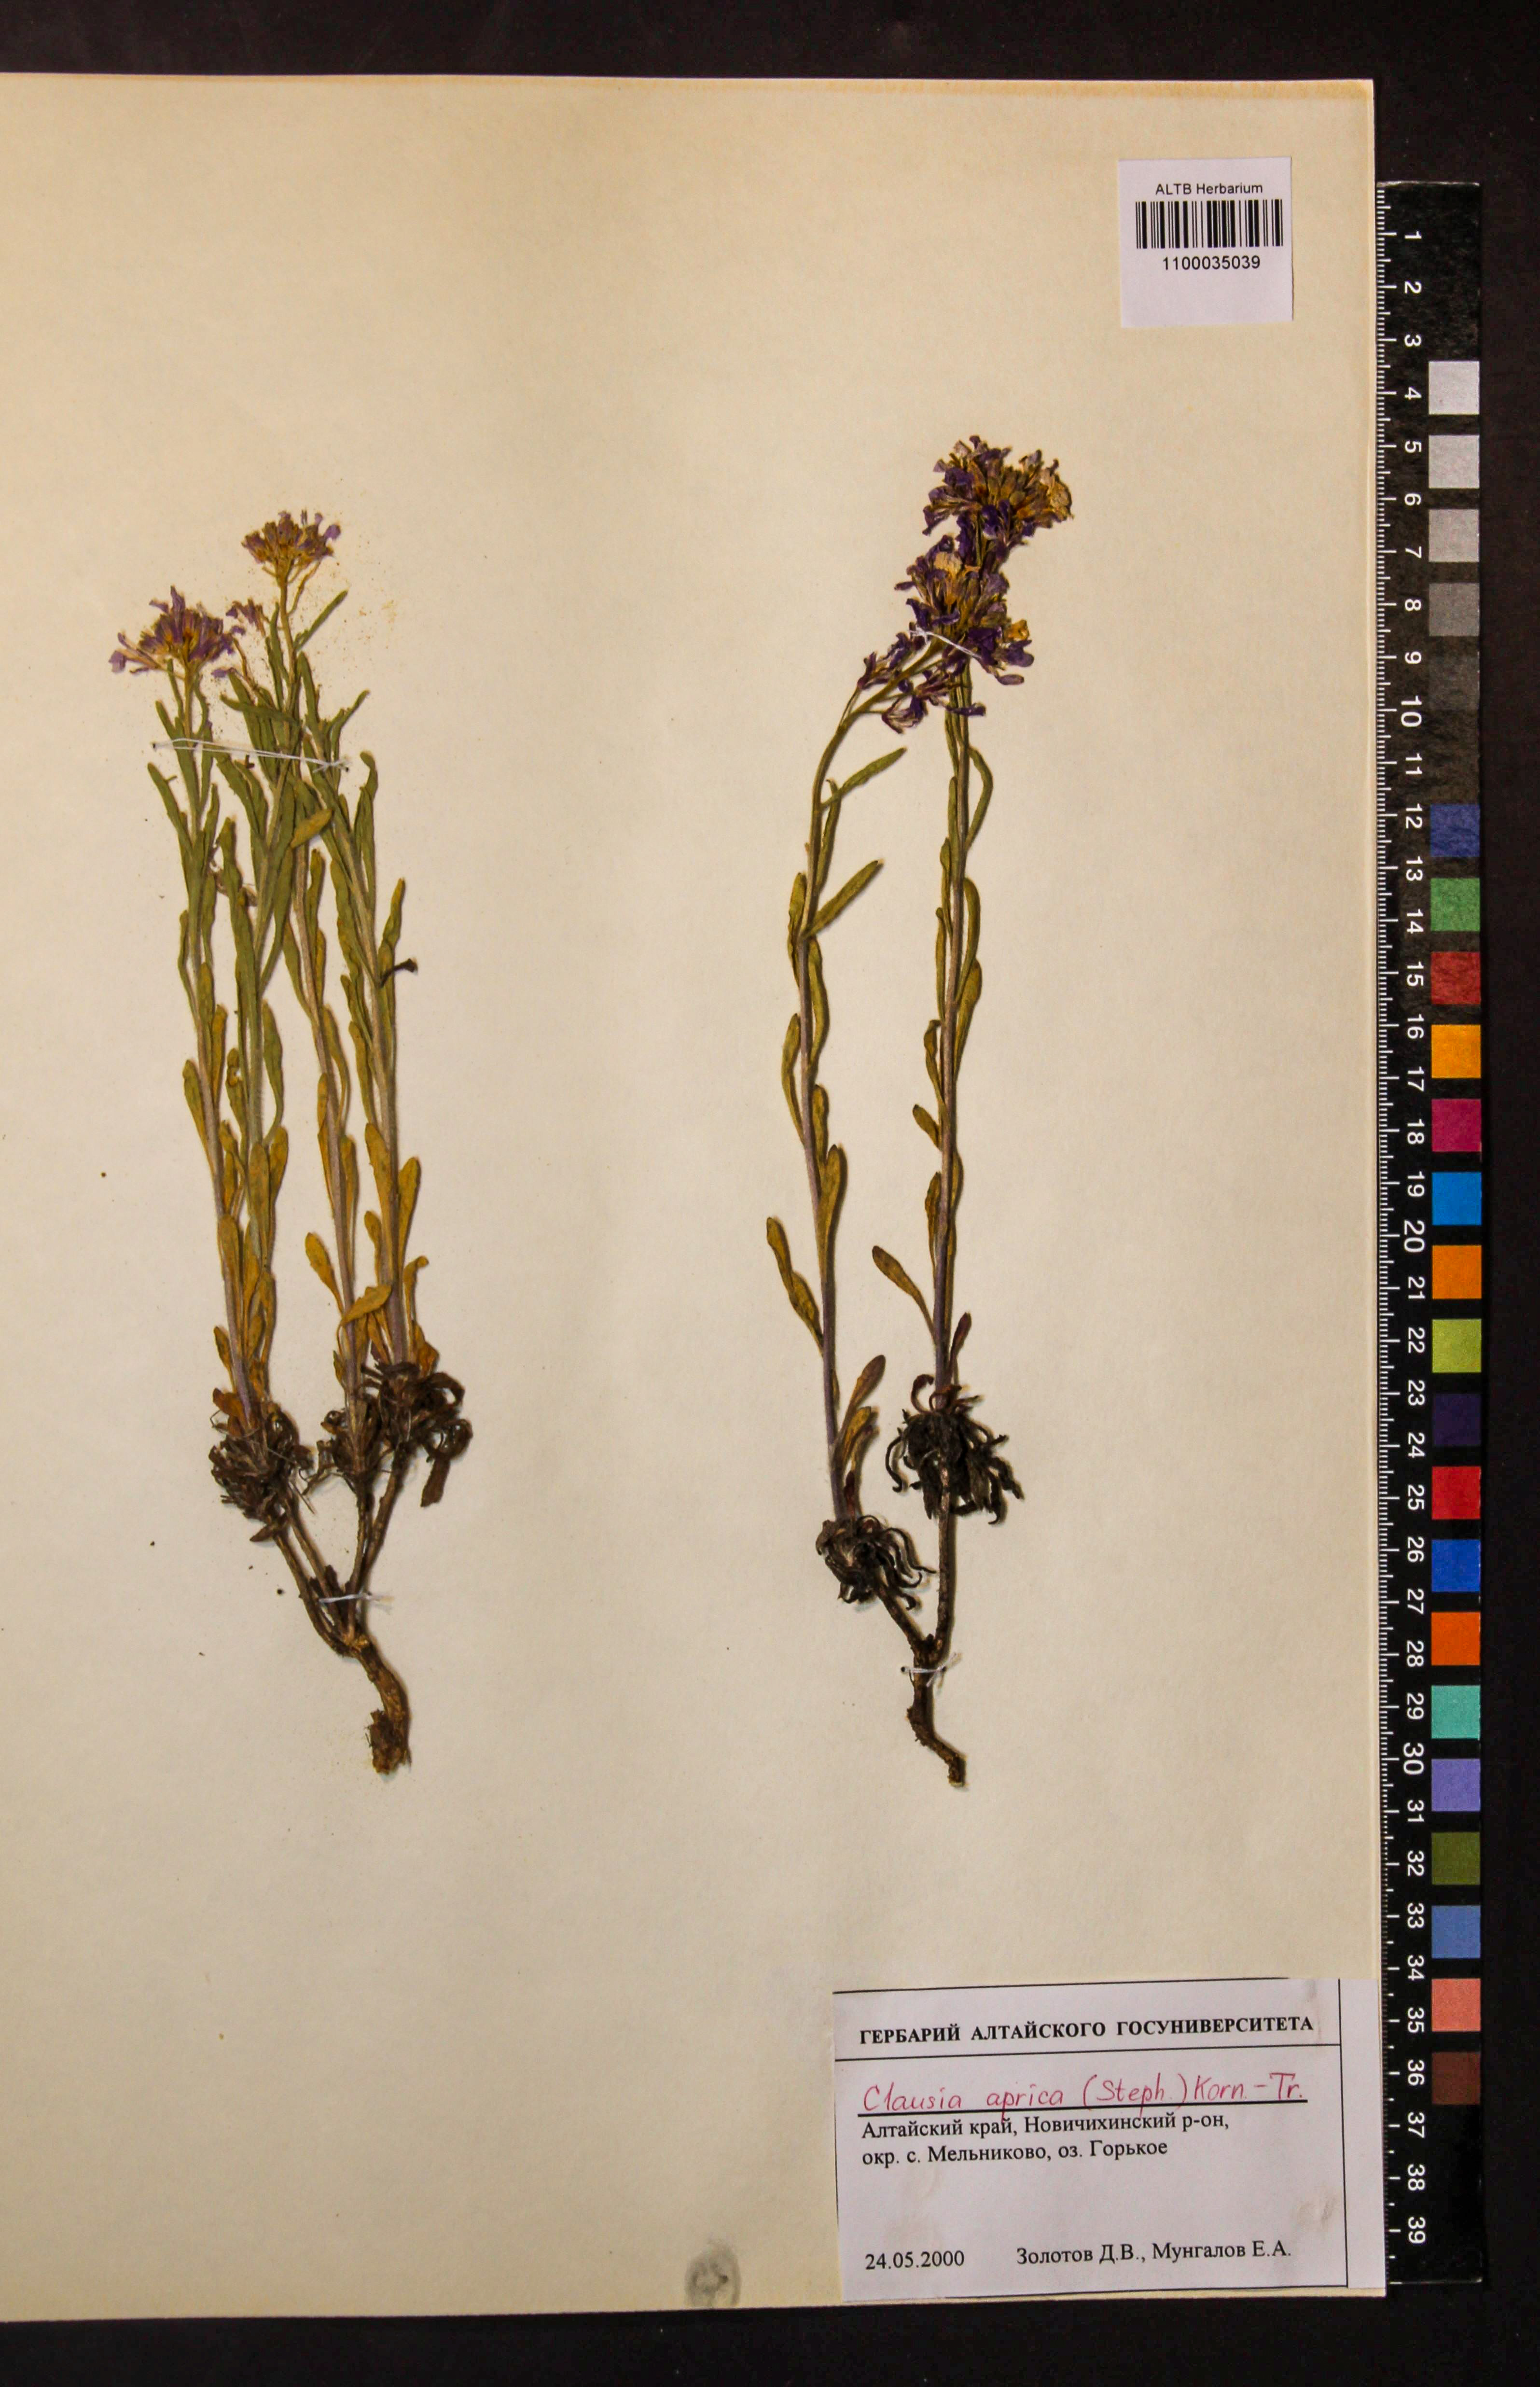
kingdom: Plantae
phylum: Tracheophyta
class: Magnoliopsida
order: Brassicales
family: Brassicaceae
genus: Clausia
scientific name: Clausia aprica
